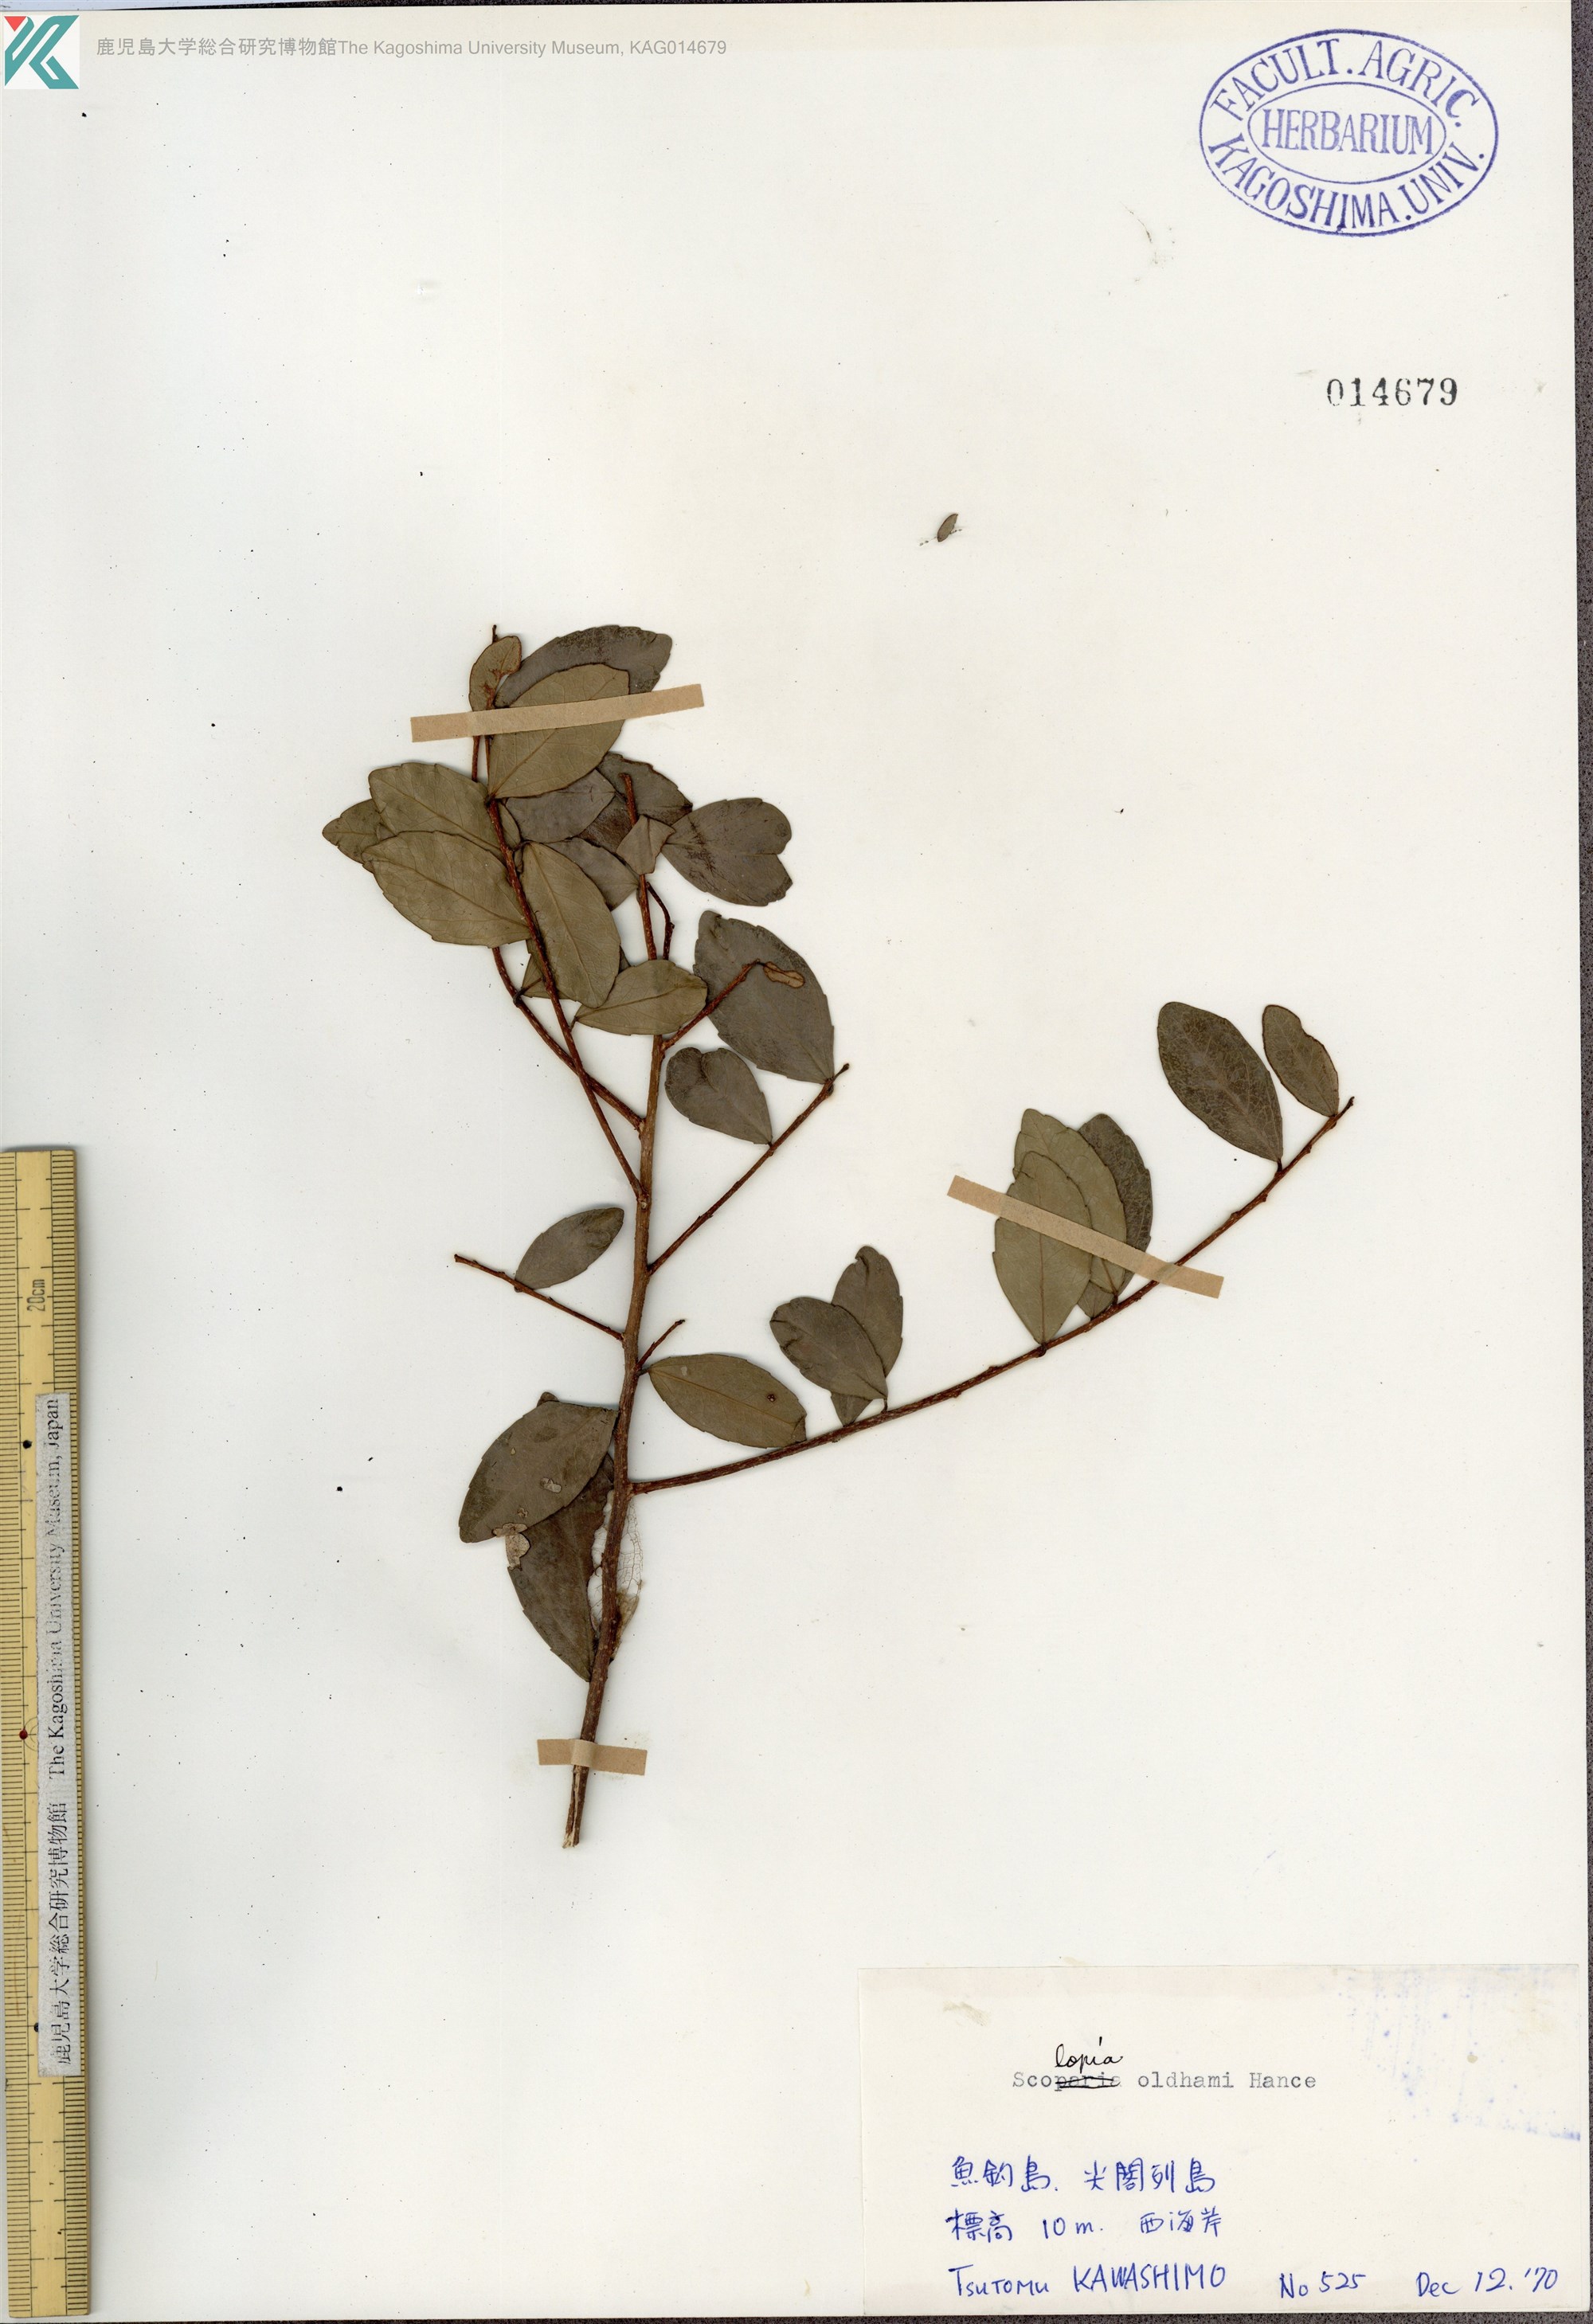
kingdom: Plantae
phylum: Tracheophyta
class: Magnoliopsida
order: Malpighiales
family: Salicaceae
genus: Scolopia
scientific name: Scolopia oldhamii
